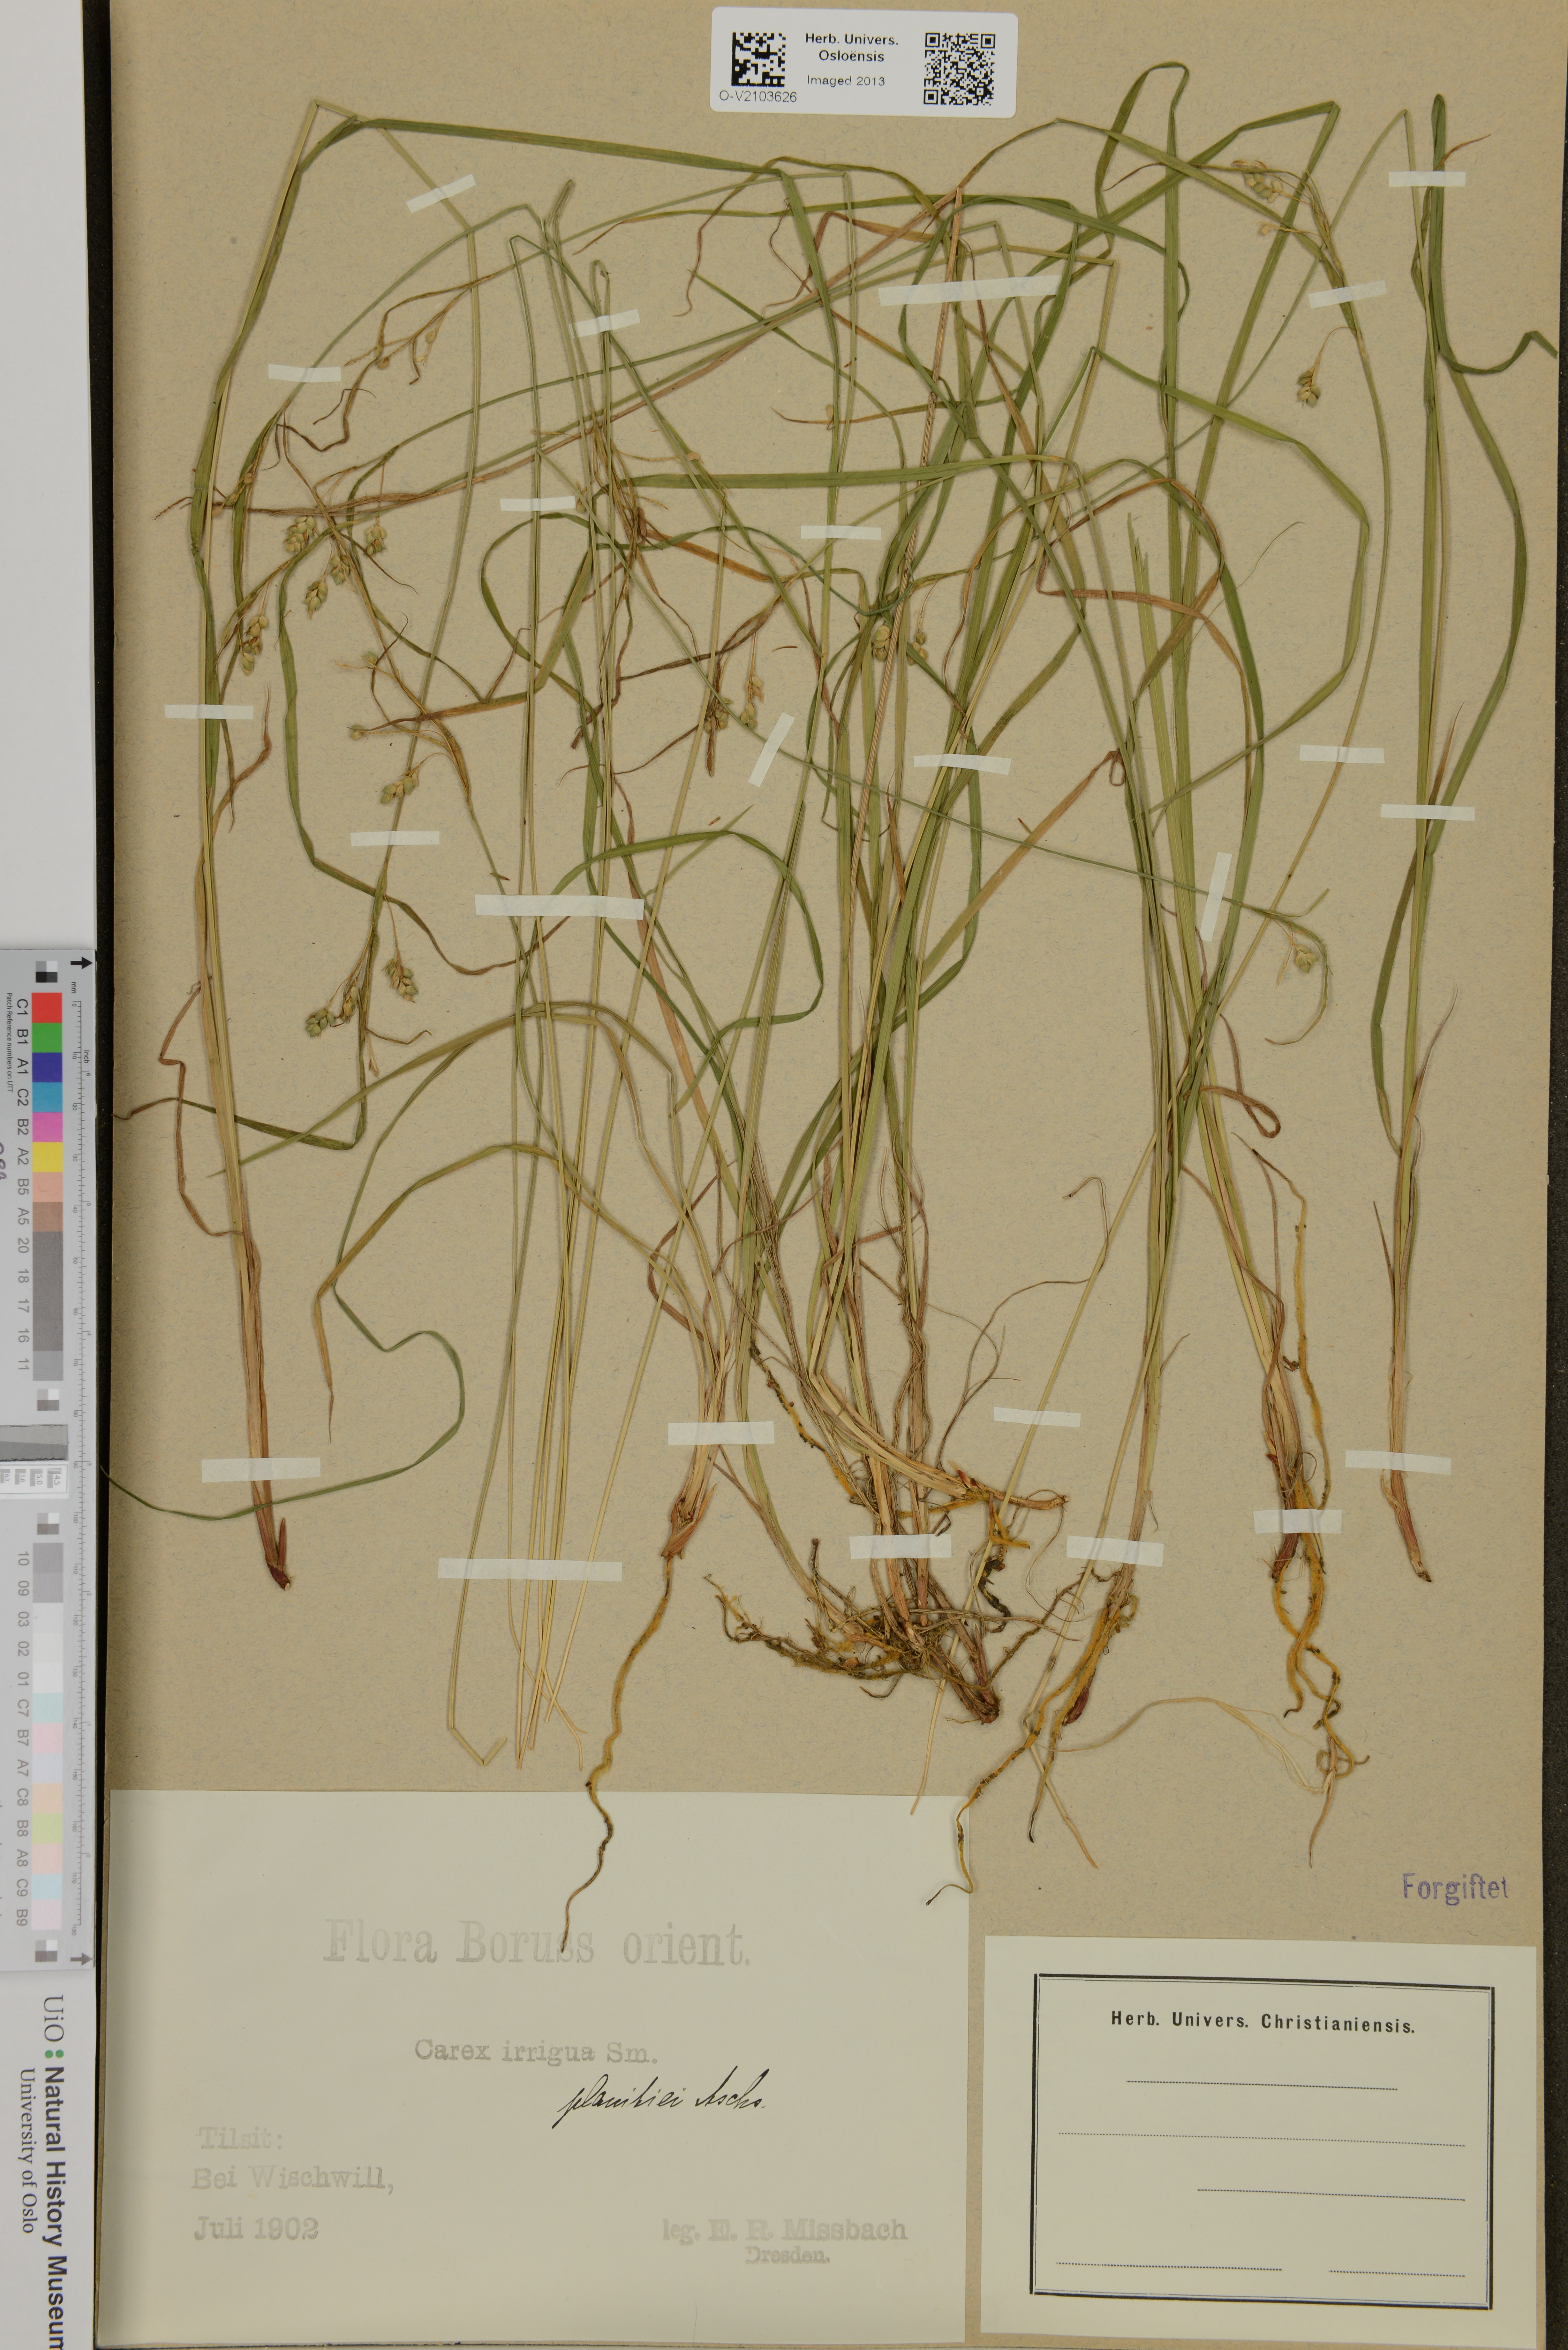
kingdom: Plantae
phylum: Tracheophyta
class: Liliopsida
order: Poales
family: Cyperaceae
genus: Carex
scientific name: Carex magellanica
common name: Bog sedge
